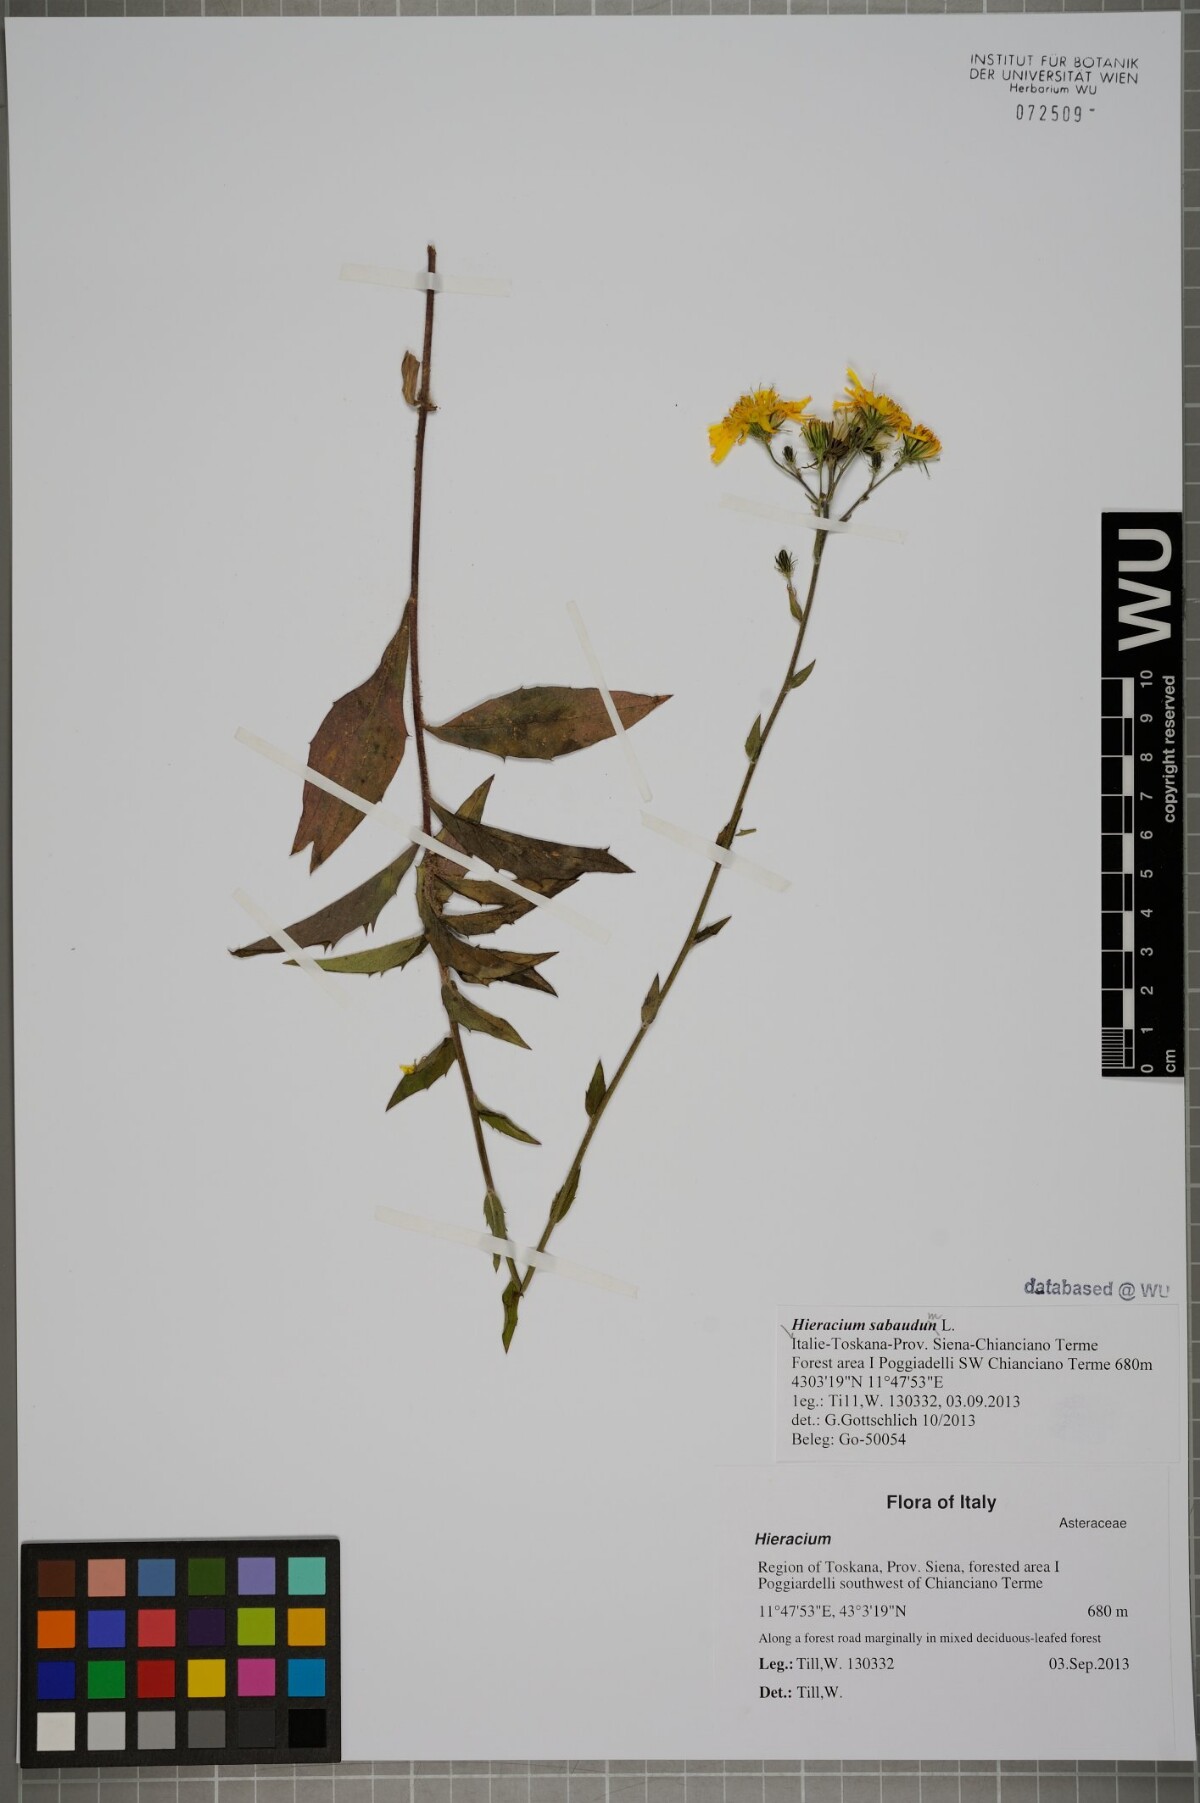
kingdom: Plantae
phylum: Tracheophyta
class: Magnoliopsida
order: Asterales
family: Asteraceae
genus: Hieracium
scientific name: Hieracium sabaudum
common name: New england hawkweed
